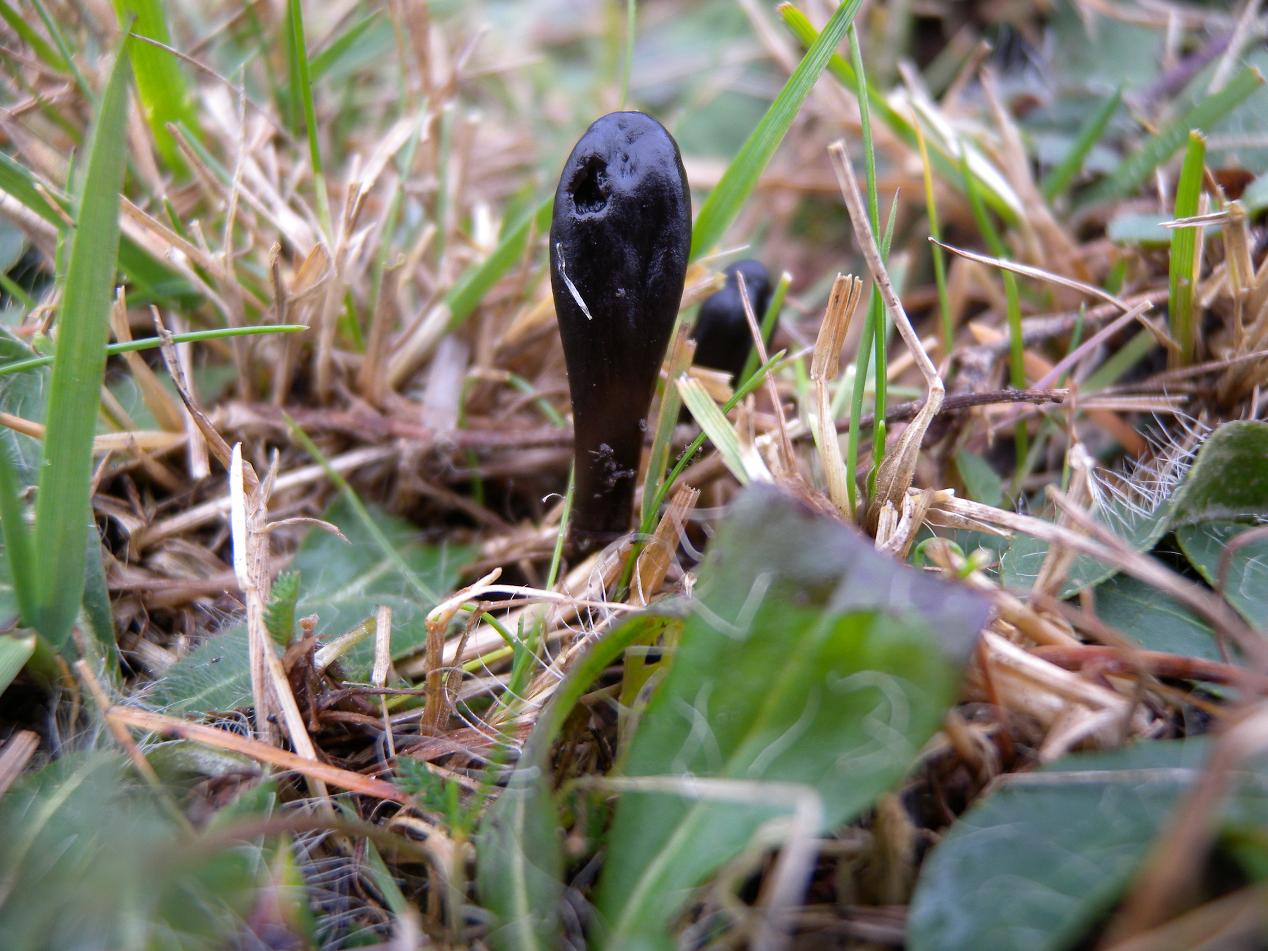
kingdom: Fungi
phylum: Ascomycota
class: Geoglossomycetes
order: Geoglossales
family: Geoglossaceae
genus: Glutinoglossum
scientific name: Glutinoglossum glutinosum
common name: slimet jordtunge
